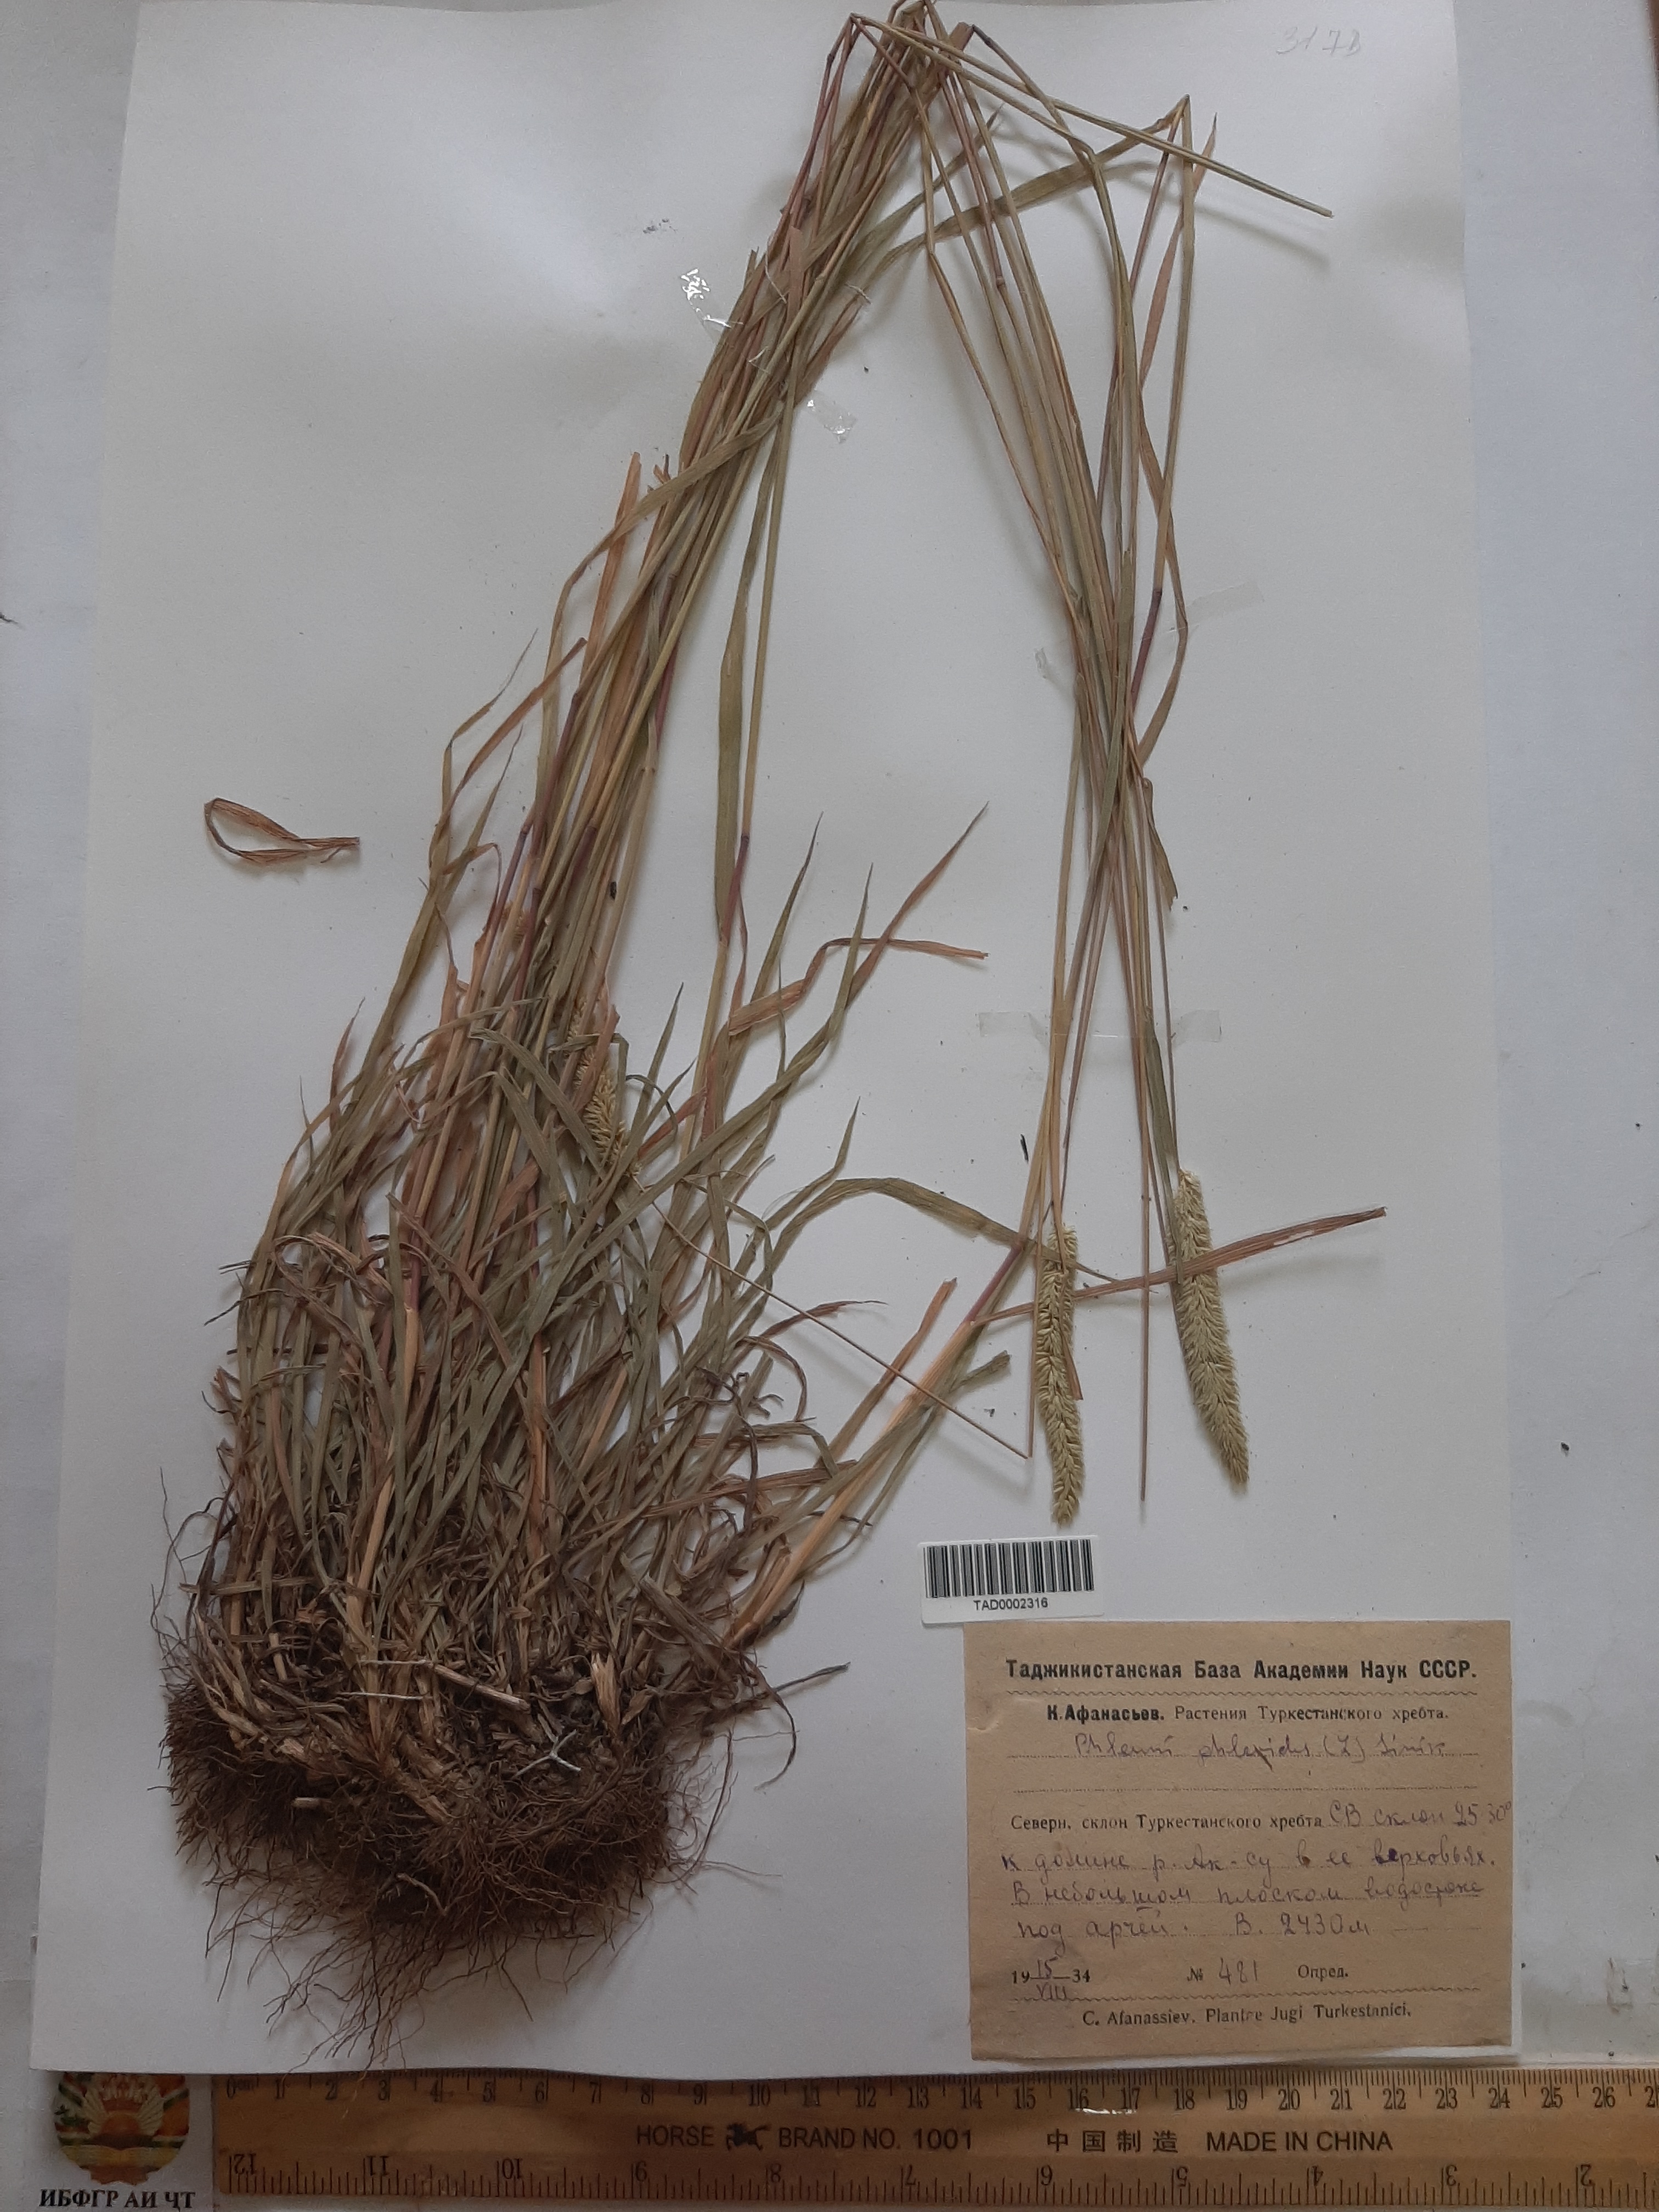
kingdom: Plantae
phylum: Tracheophyta
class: Liliopsida
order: Poales
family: Poaceae
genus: Phleum
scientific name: Phleum phleoides
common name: Purple-stem cat's-tail
